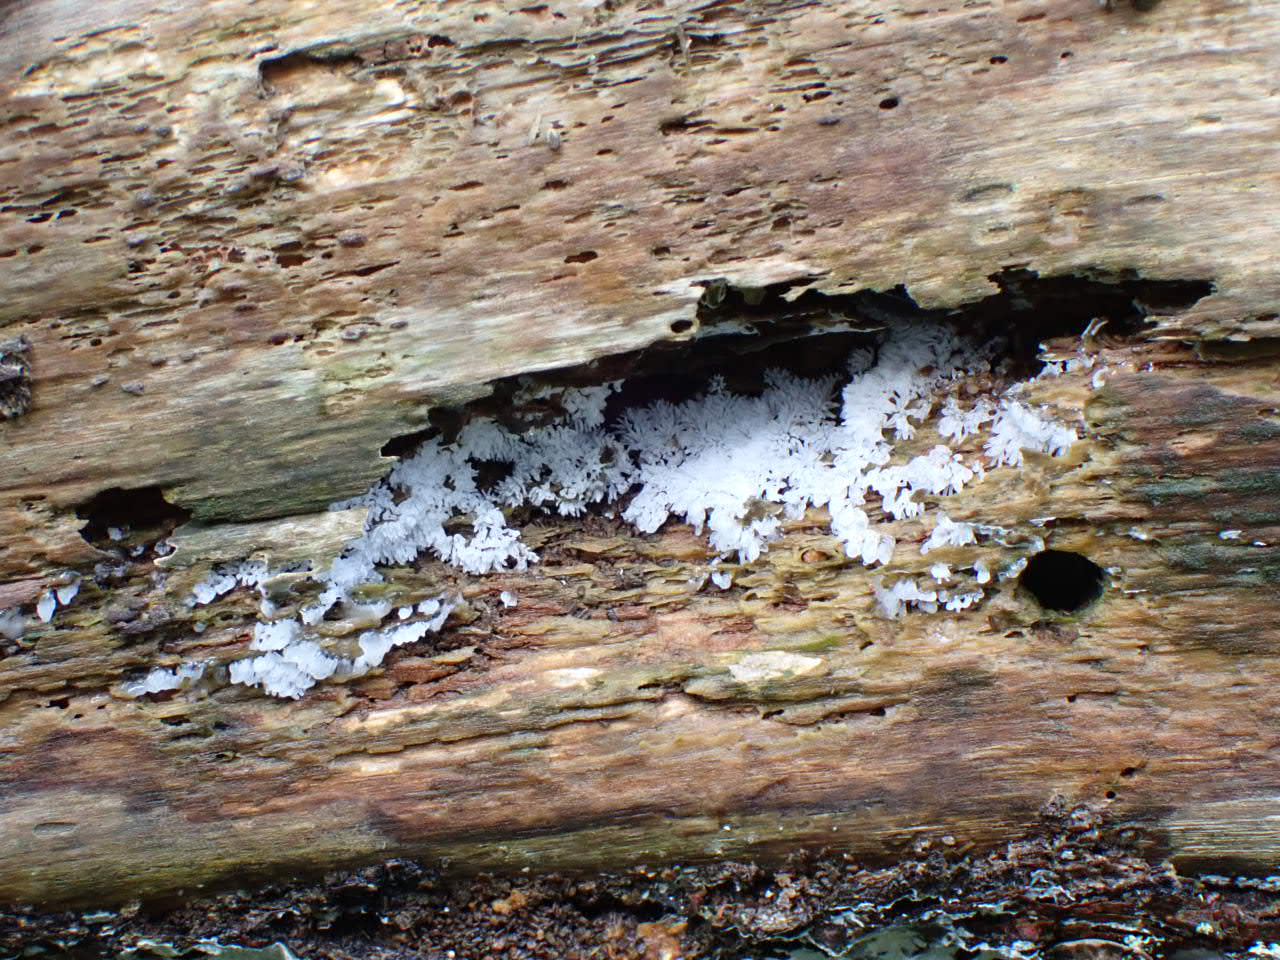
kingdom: Protozoa
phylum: Mycetozoa
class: Protosteliomycetes
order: Ceratiomyxales
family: Ceratiomyxaceae
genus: Ceratiomyxa
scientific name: Ceratiomyxa fruticulosa
